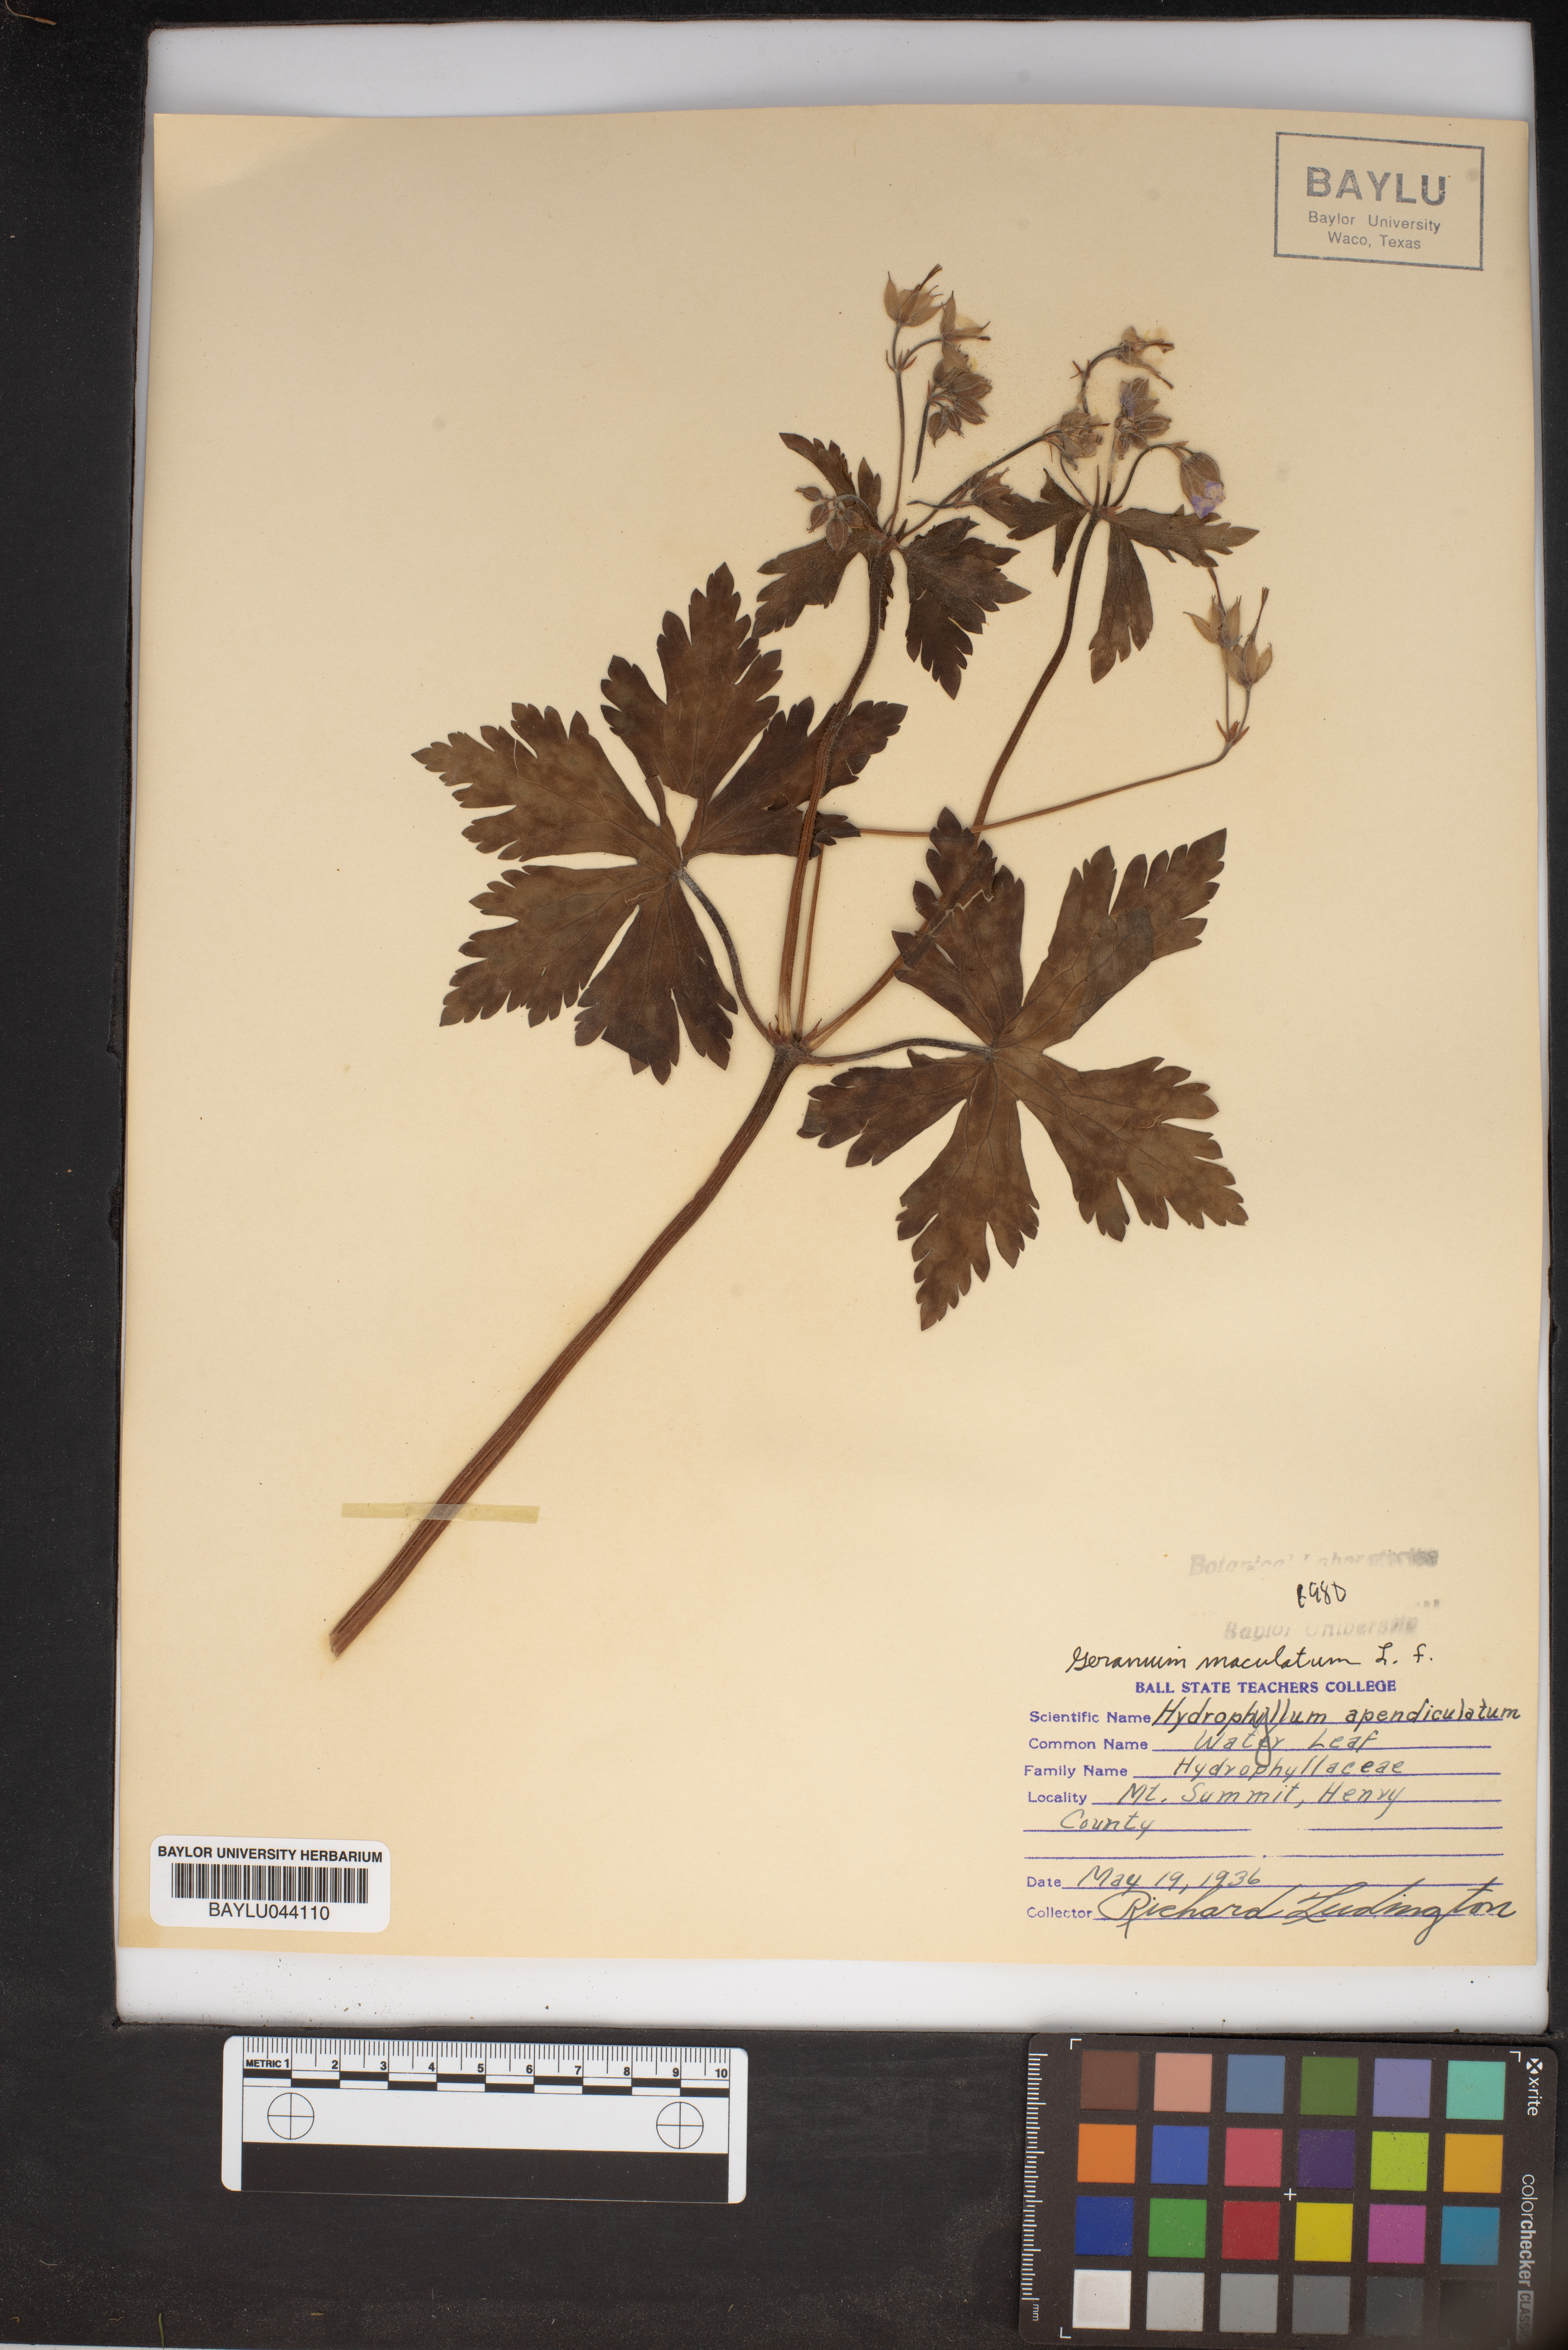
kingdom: Plantae
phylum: Tracheophyta
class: Magnoliopsida
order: Boraginales
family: Hydrophyllaceae
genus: Hydrophyllum
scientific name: Hydrophyllum appendiculatum
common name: Appendaged waterleaf
